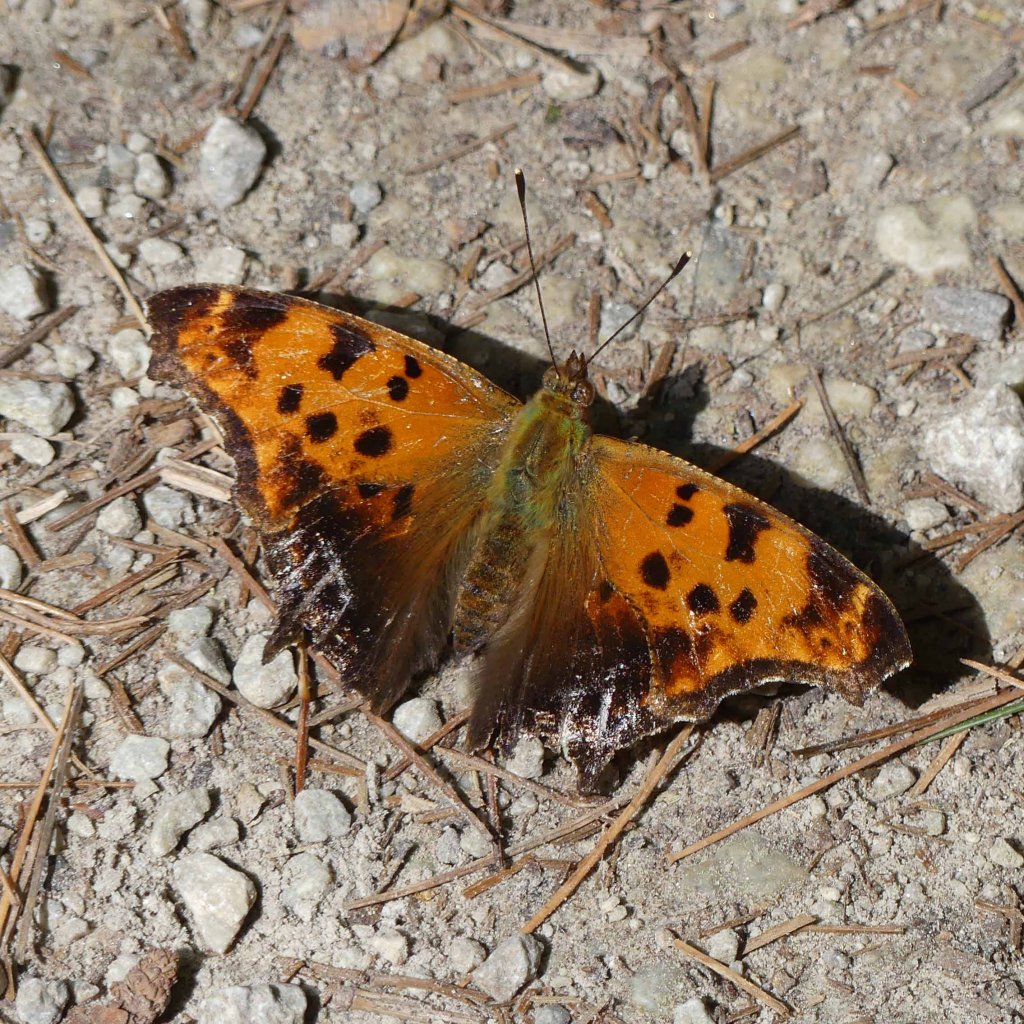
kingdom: Animalia
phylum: Arthropoda
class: Insecta
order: Lepidoptera
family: Nymphalidae
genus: Polygonia
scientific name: Polygonia comma
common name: Eastern Comma
